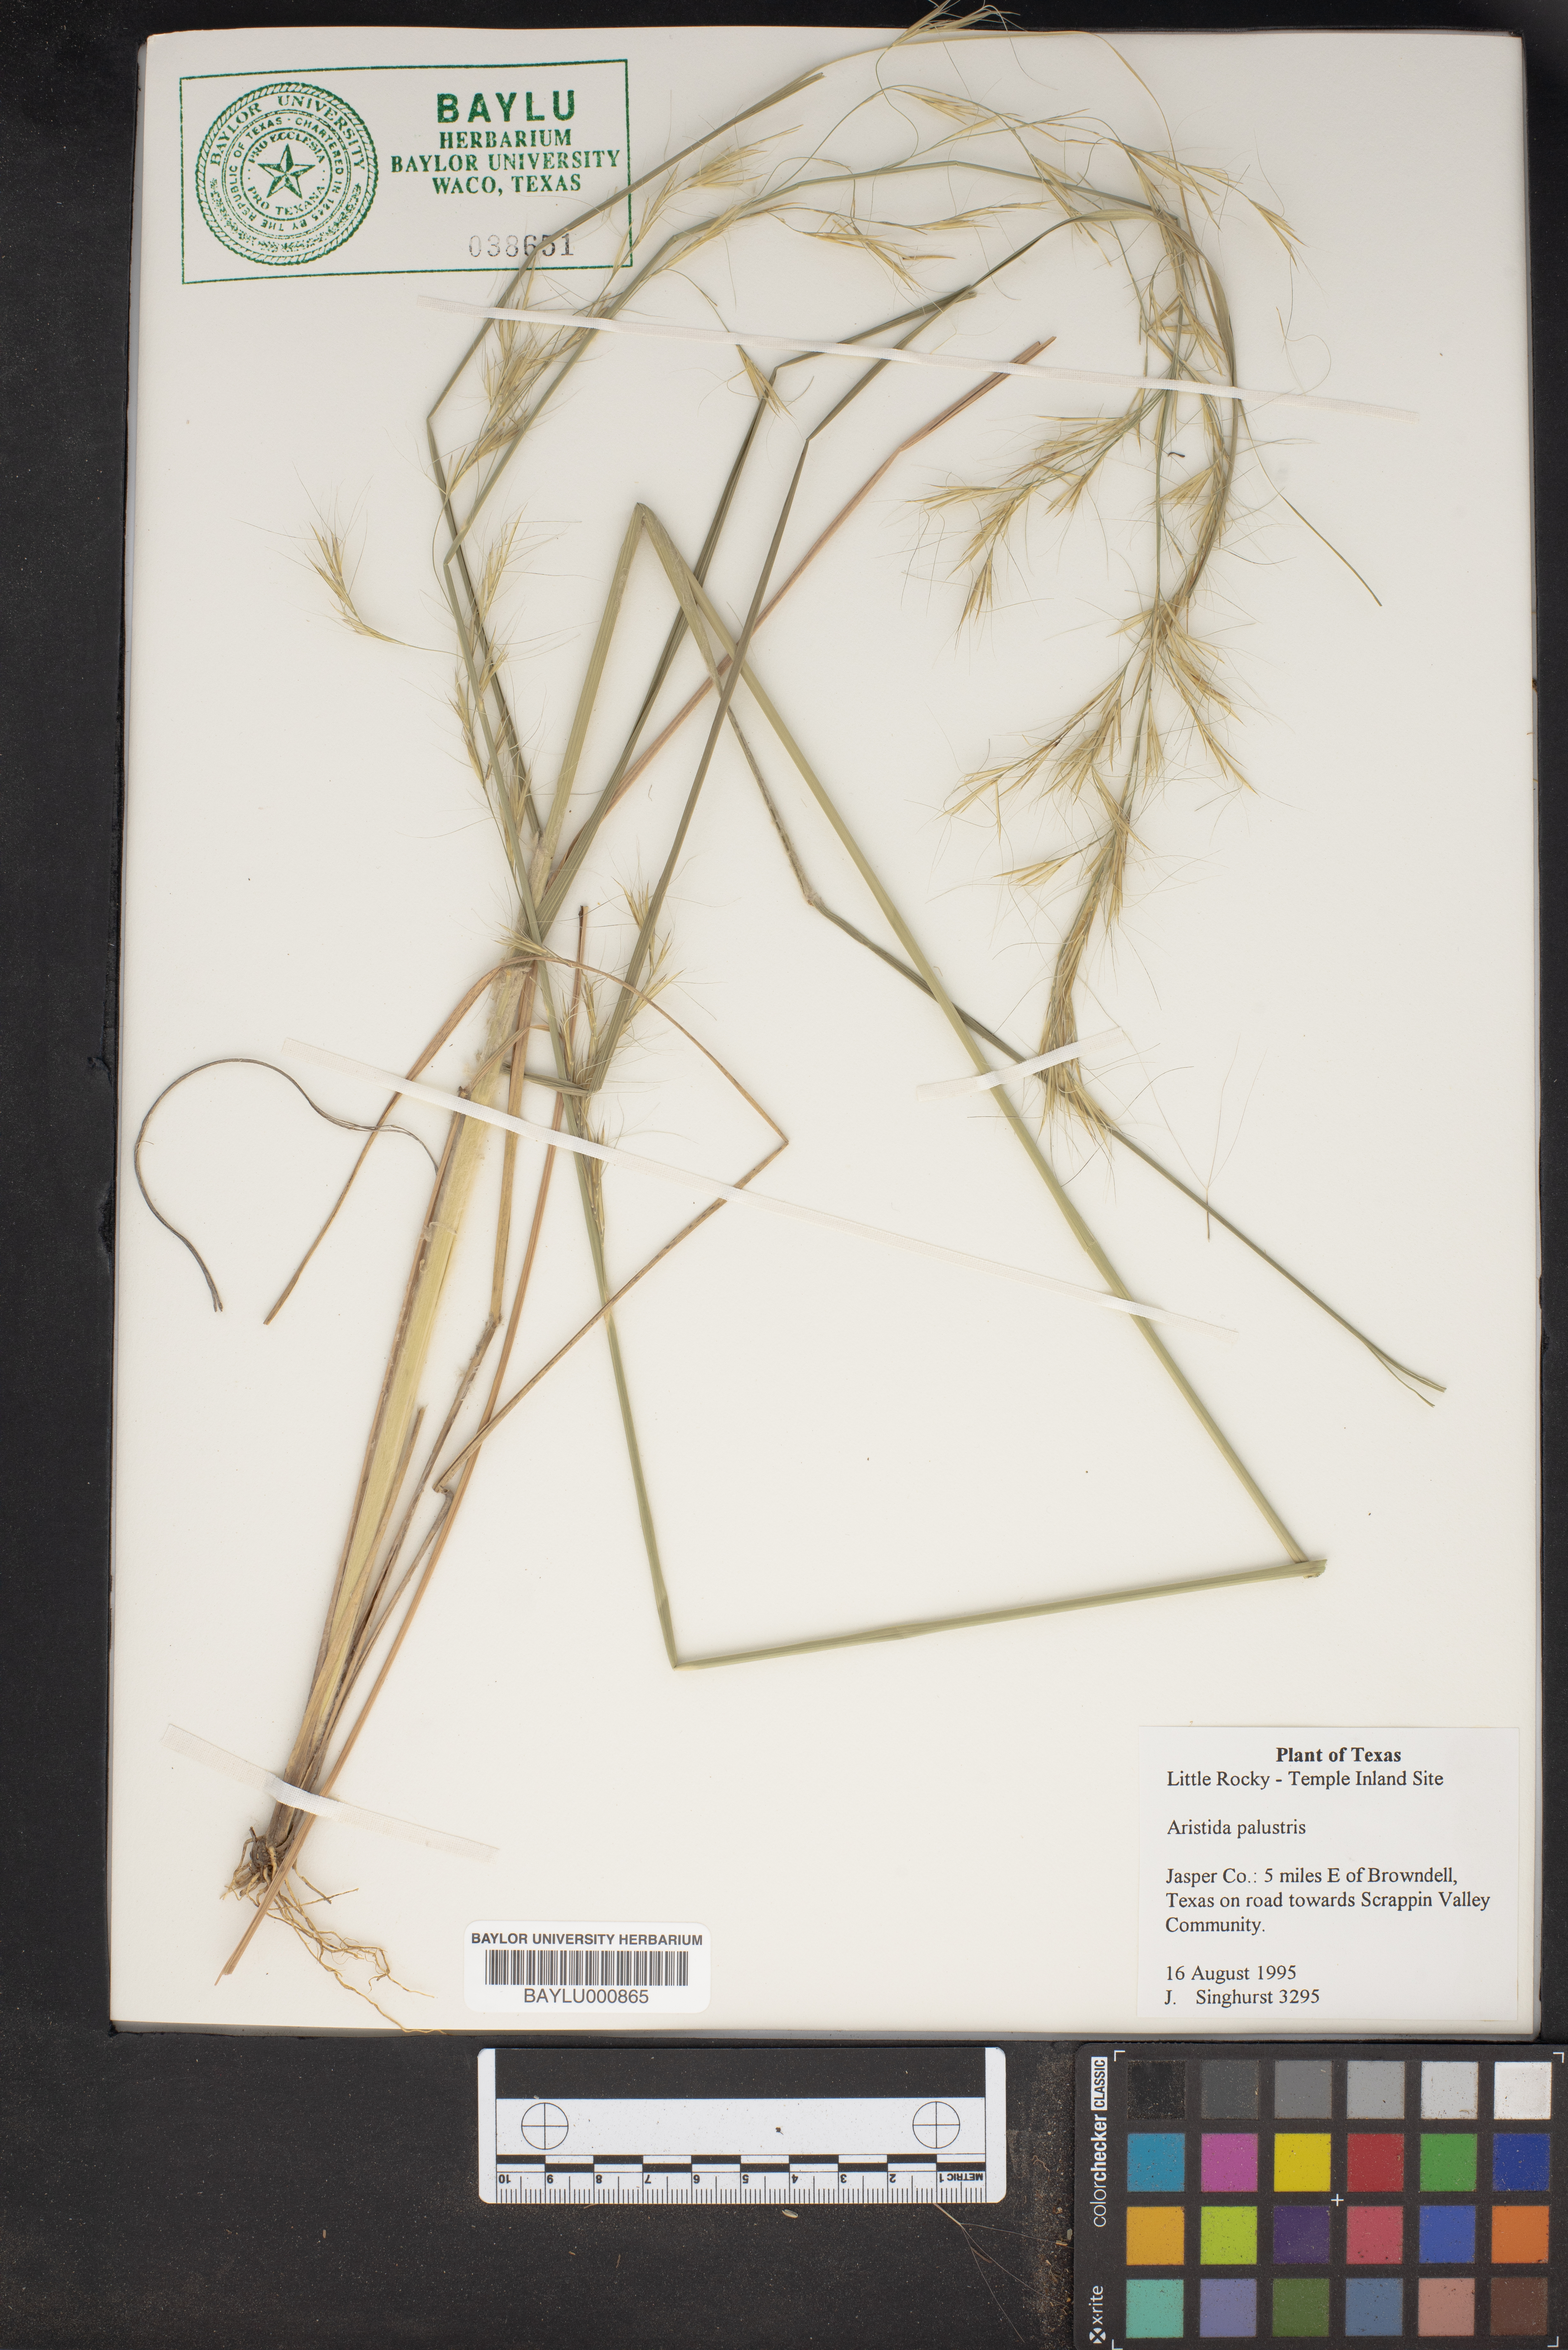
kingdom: Plantae
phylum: Tracheophyta
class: Liliopsida
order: Poales
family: Poaceae
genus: Aristida
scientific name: Aristida palustris
